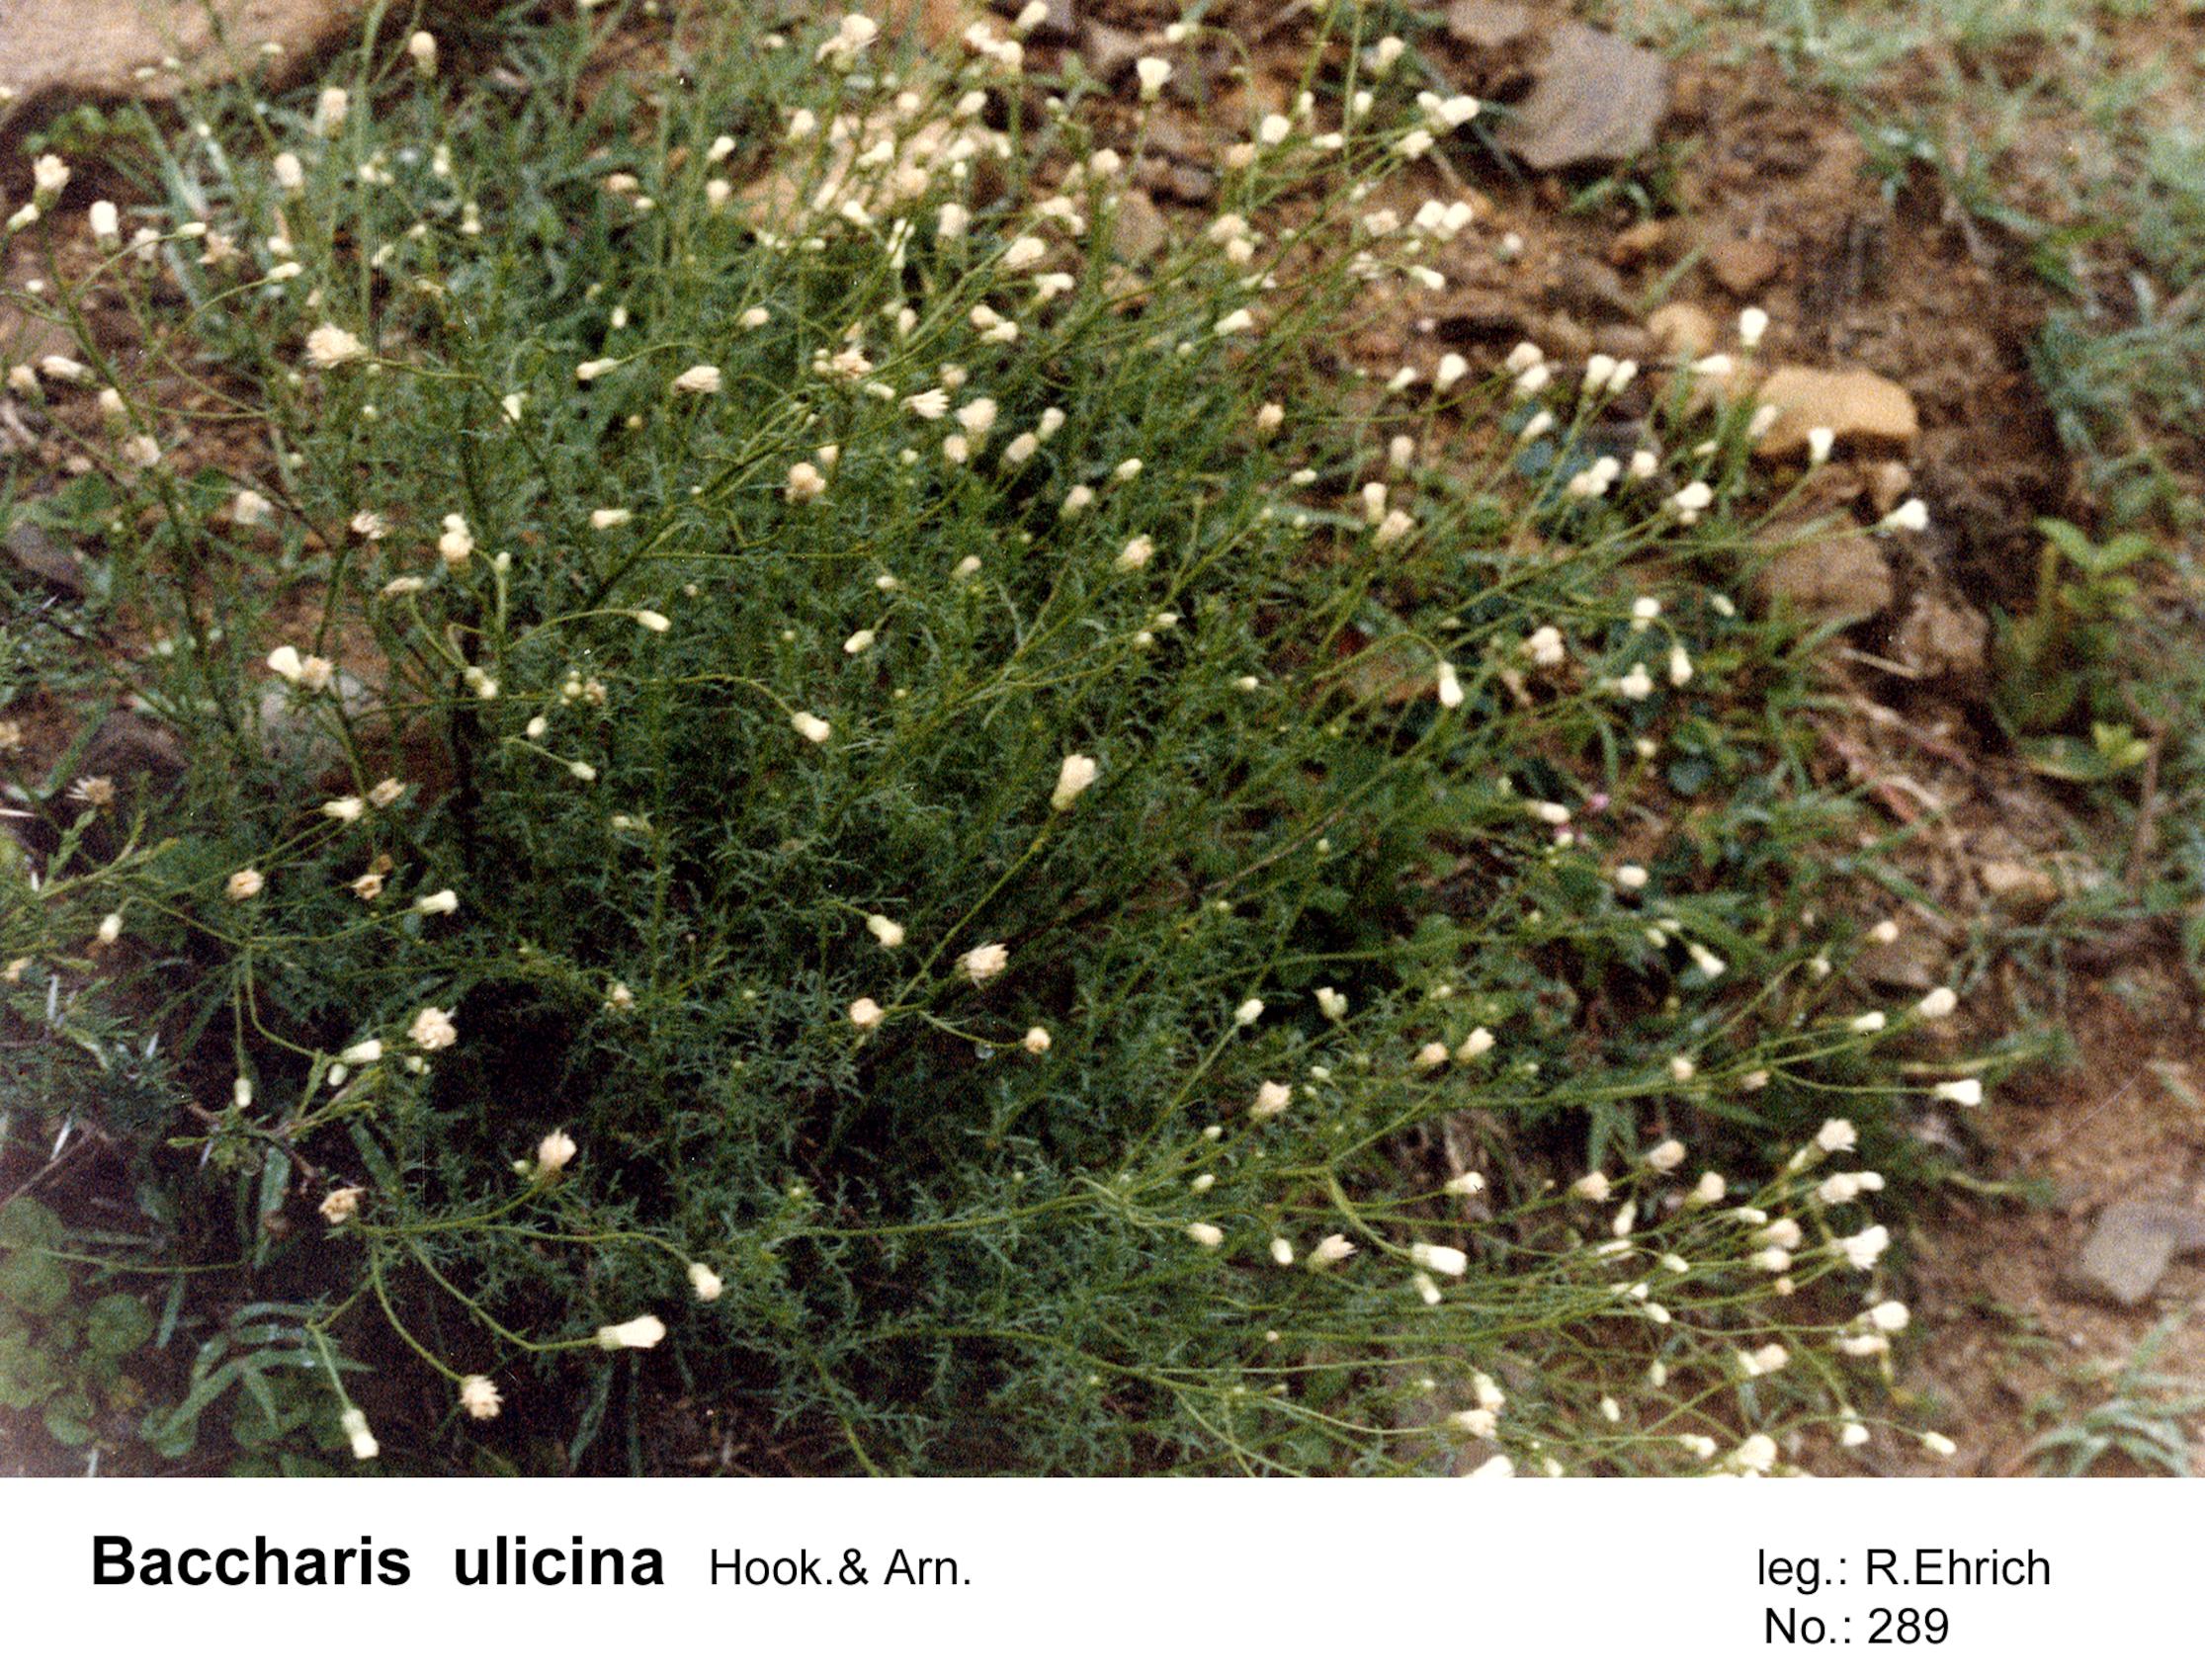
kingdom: Plantae
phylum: Tracheophyta
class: Magnoliopsida
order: Asterales
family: Asteraceae
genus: Baccharis
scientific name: Baccharis ulicina
